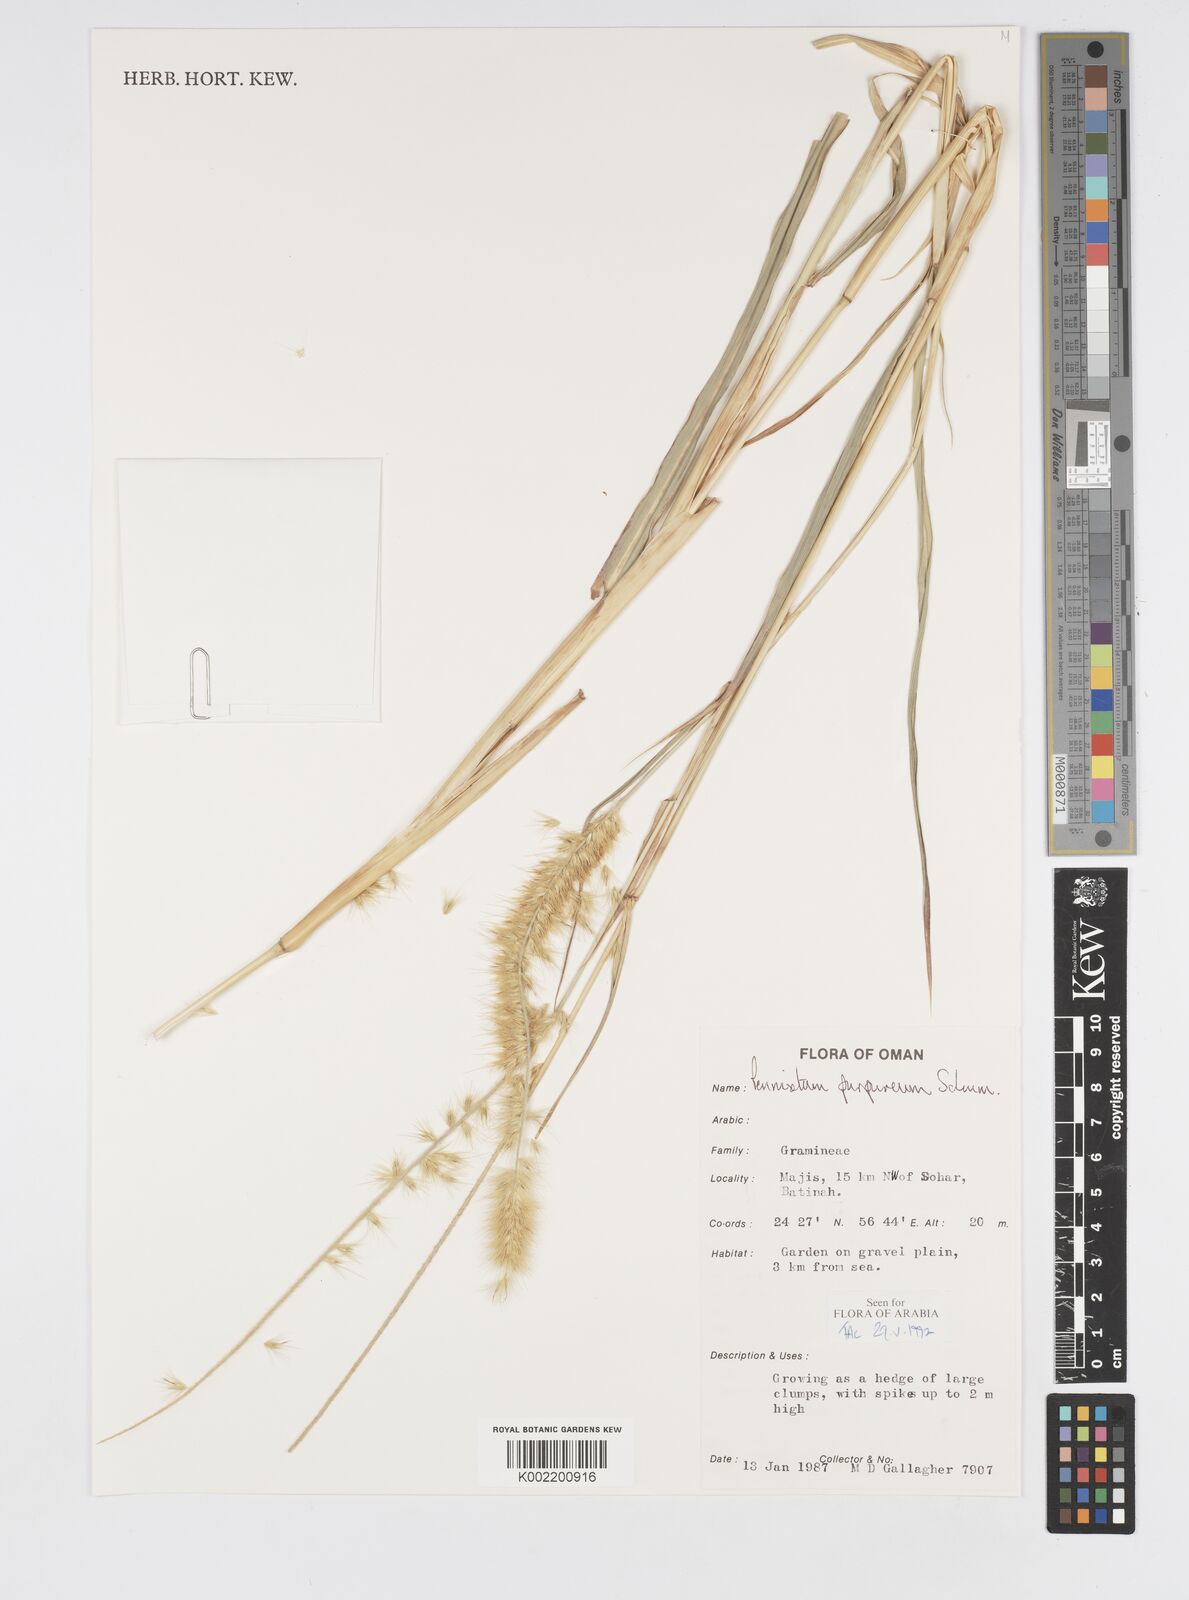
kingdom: Plantae
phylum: Tracheophyta
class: Liliopsida
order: Poales
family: Poaceae
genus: Cenchrus
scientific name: Cenchrus purpureus
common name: Elephant grass
